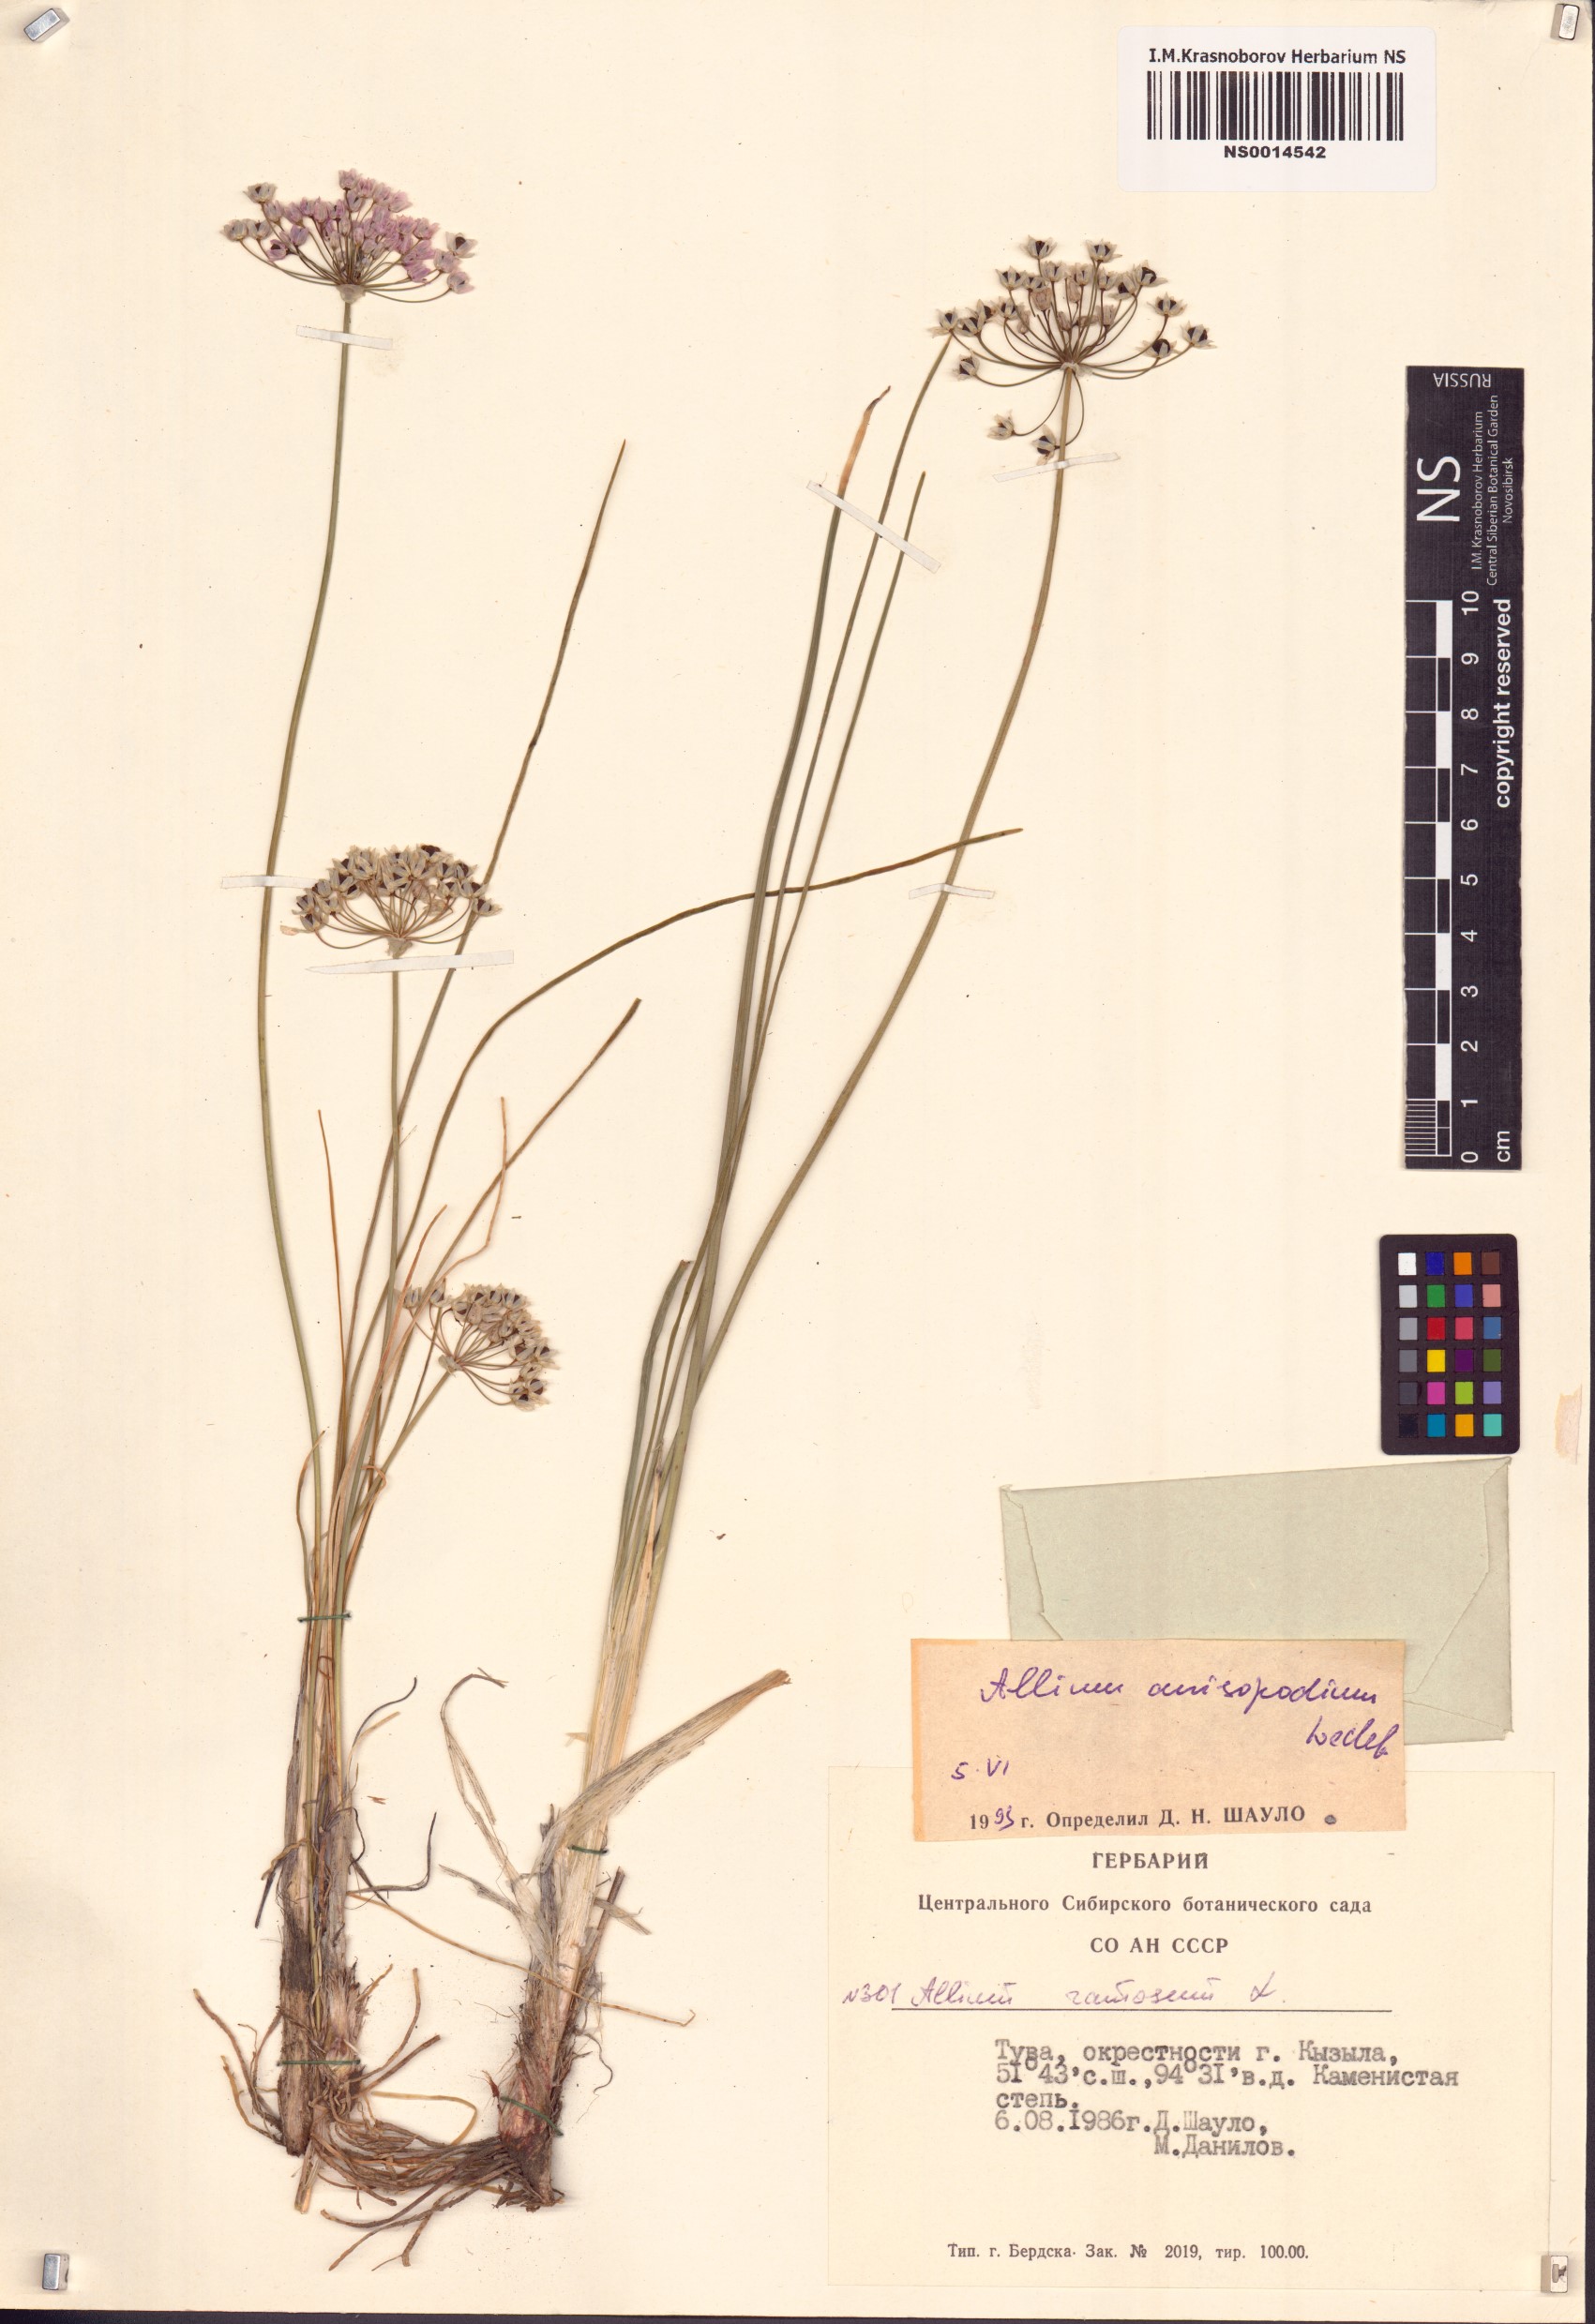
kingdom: Plantae
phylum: Tracheophyta
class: Liliopsida
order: Asparagales
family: Amaryllidaceae
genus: Allium
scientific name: Allium anisopodium
